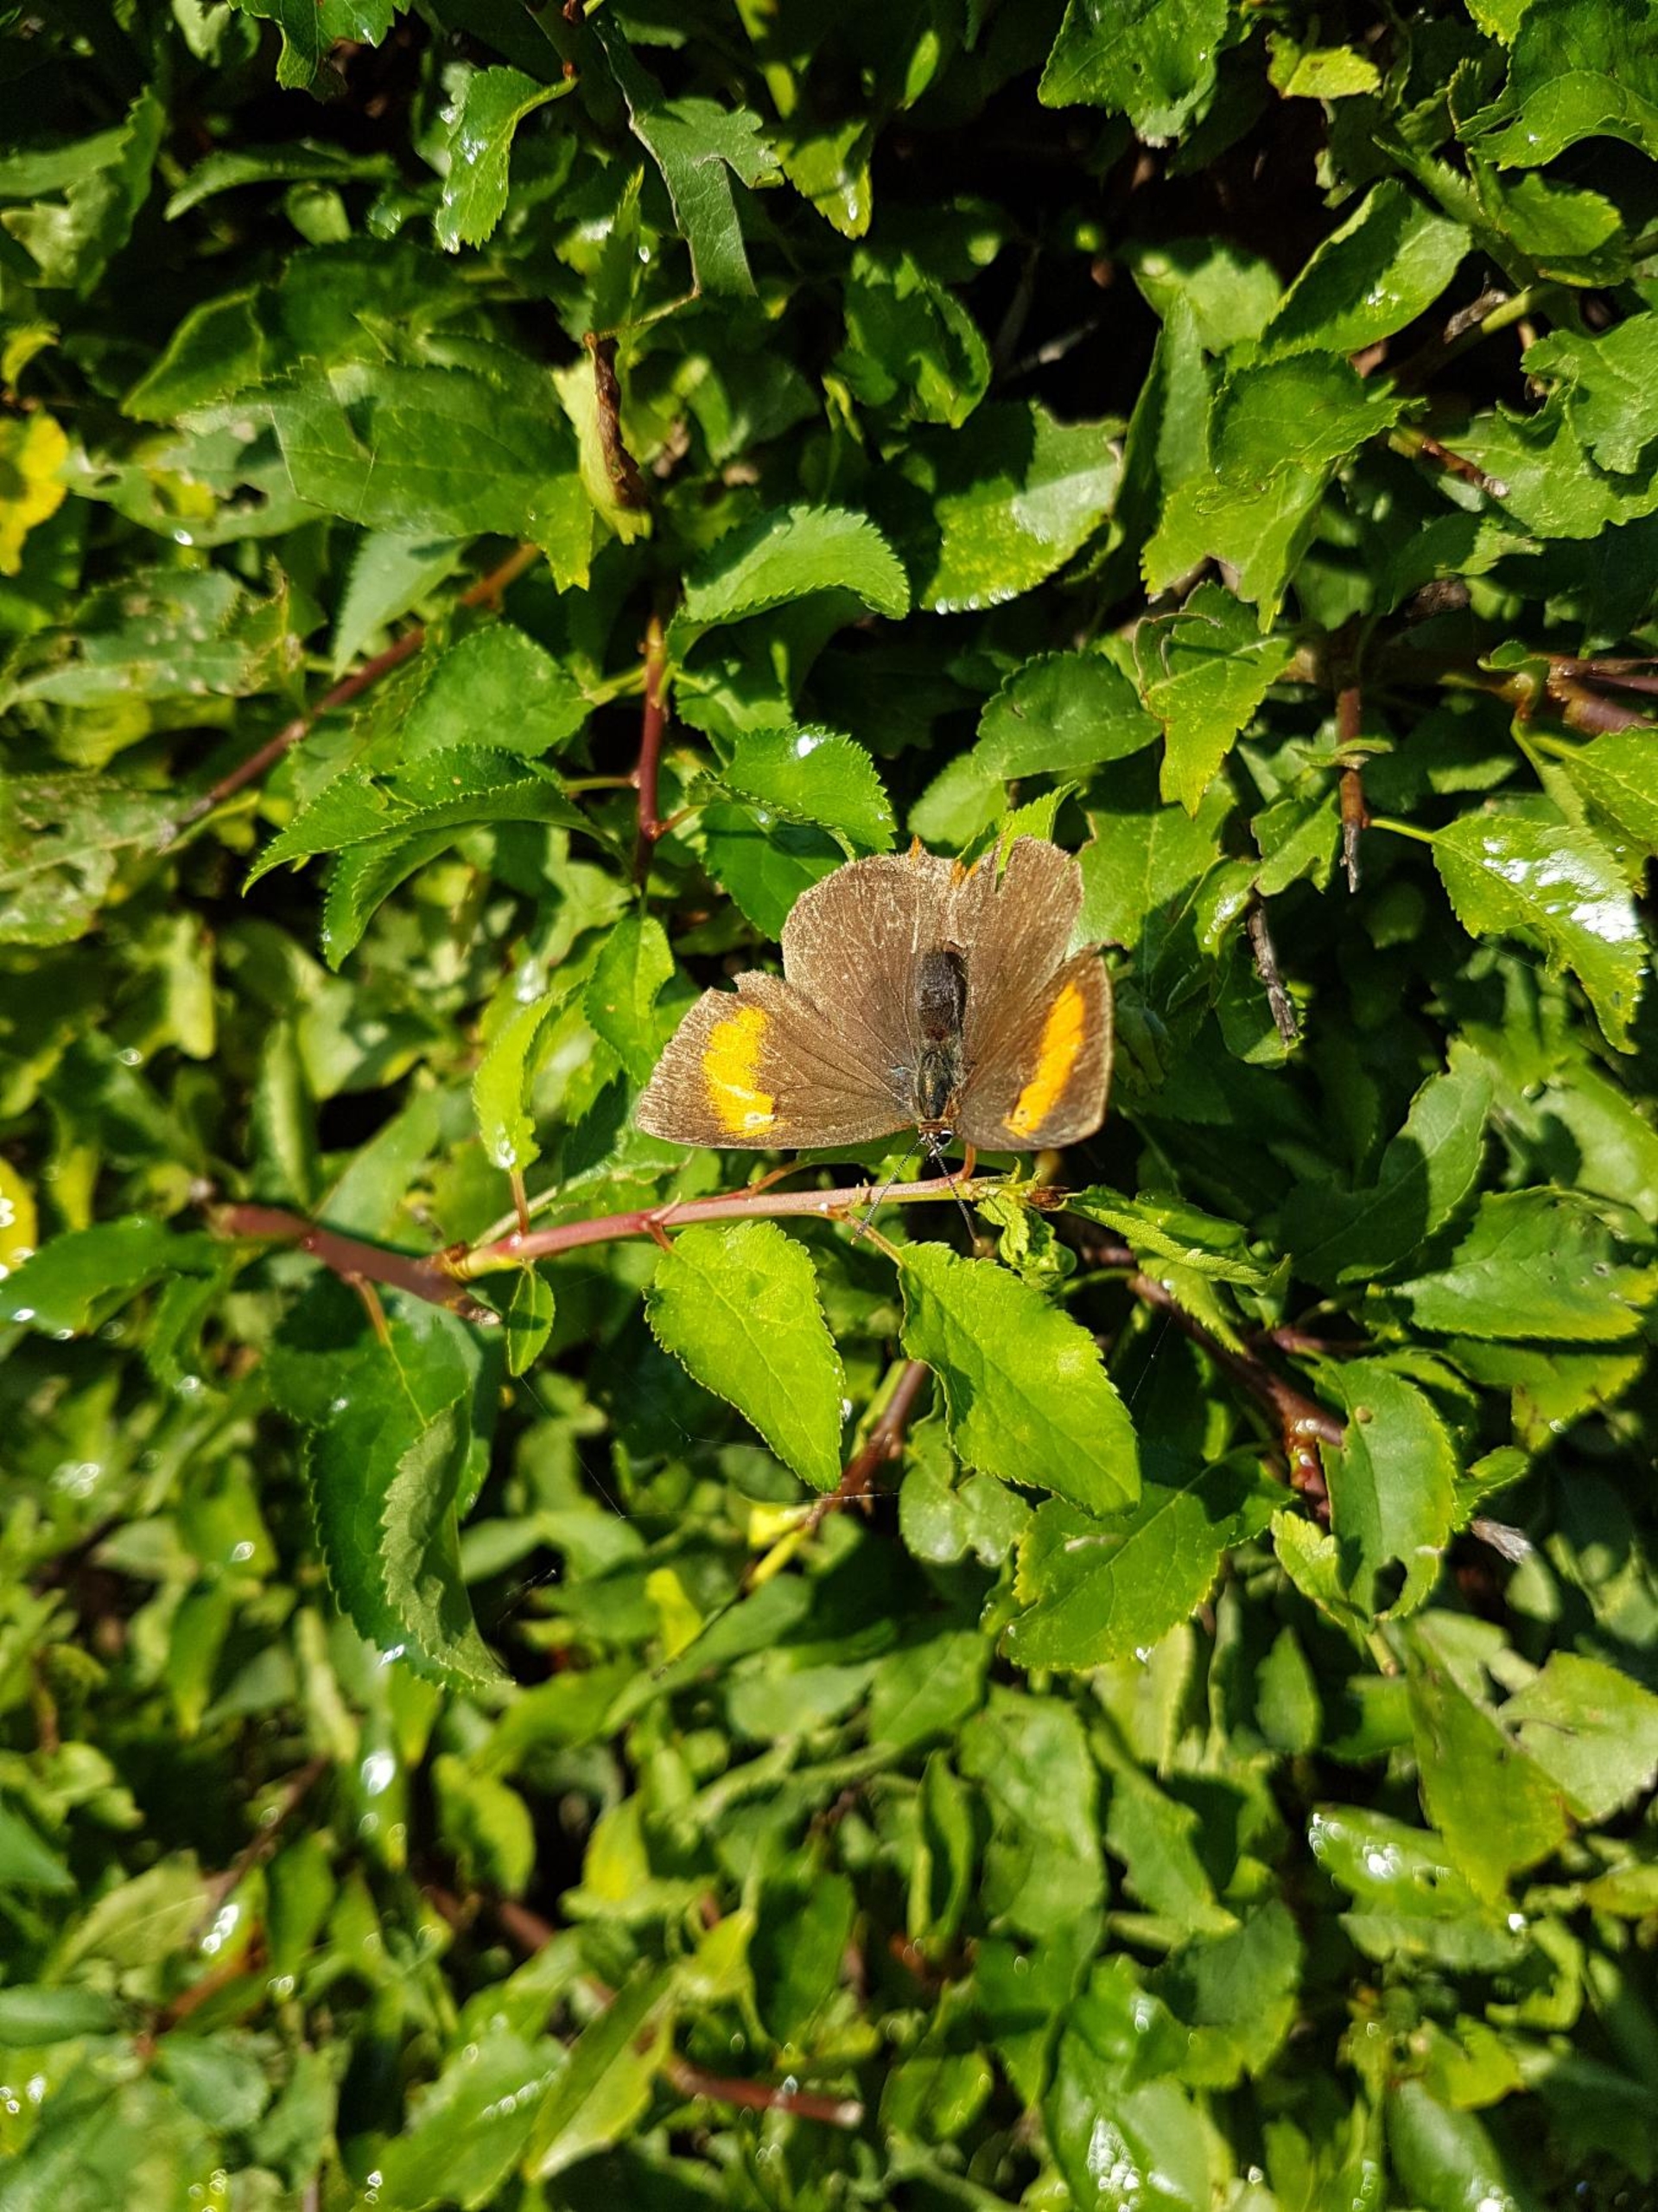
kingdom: Animalia
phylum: Arthropoda
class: Insecta
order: Lepidoptera
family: Lycaenidae
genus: Thecla
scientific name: Thecla betulae
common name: Guldhale
